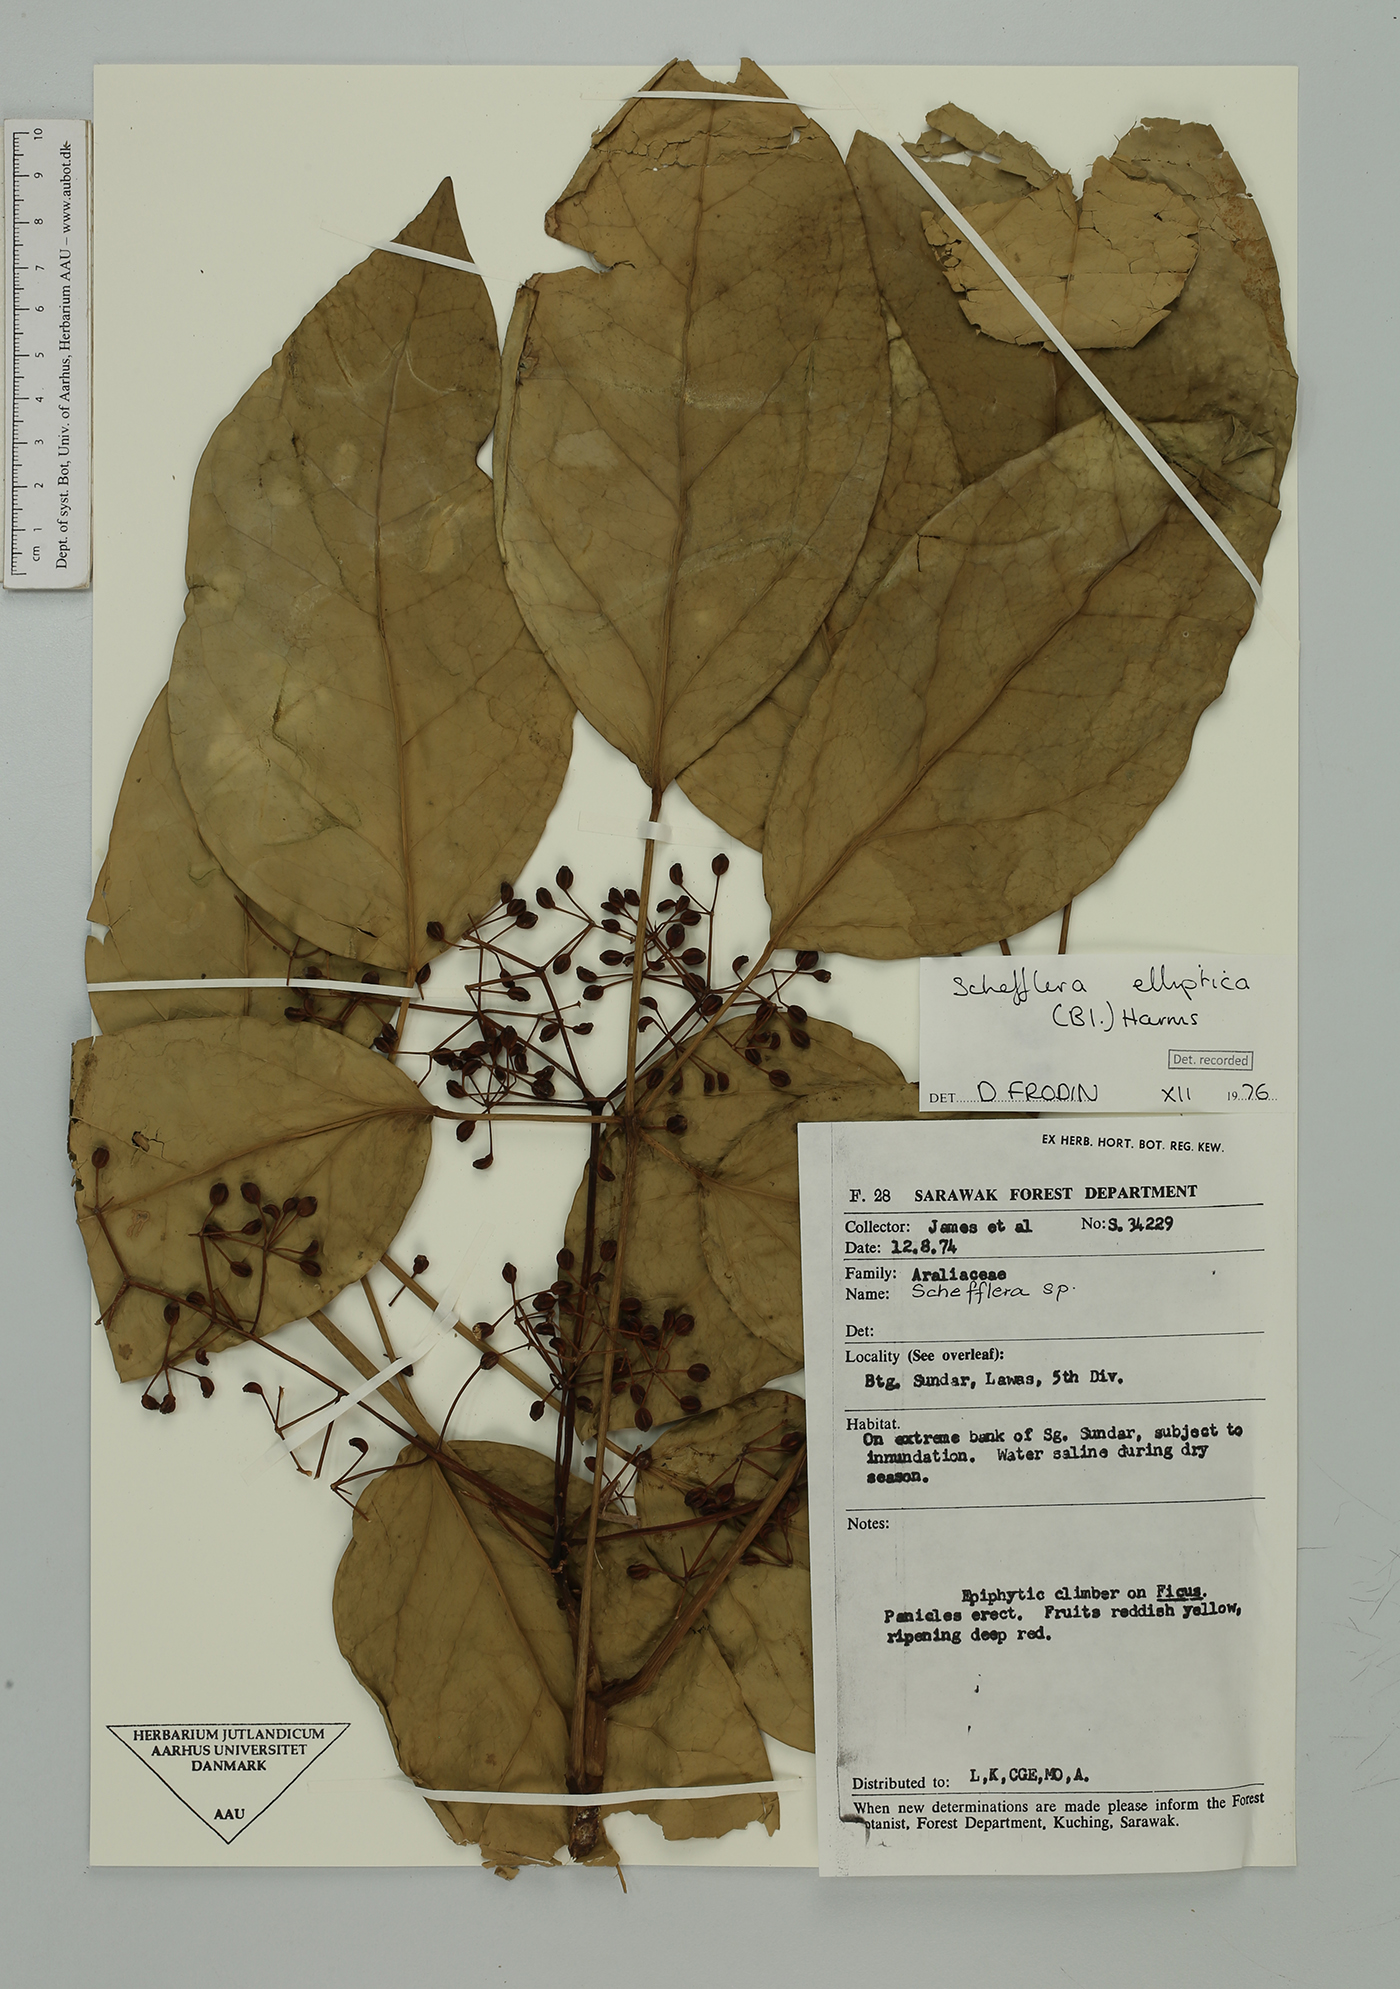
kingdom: Plantae
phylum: Tracheophyta
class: Magnoliopsida
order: Apiales
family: Araliaceae
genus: Heptapleurum
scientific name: Heptapleurum ellipticum
